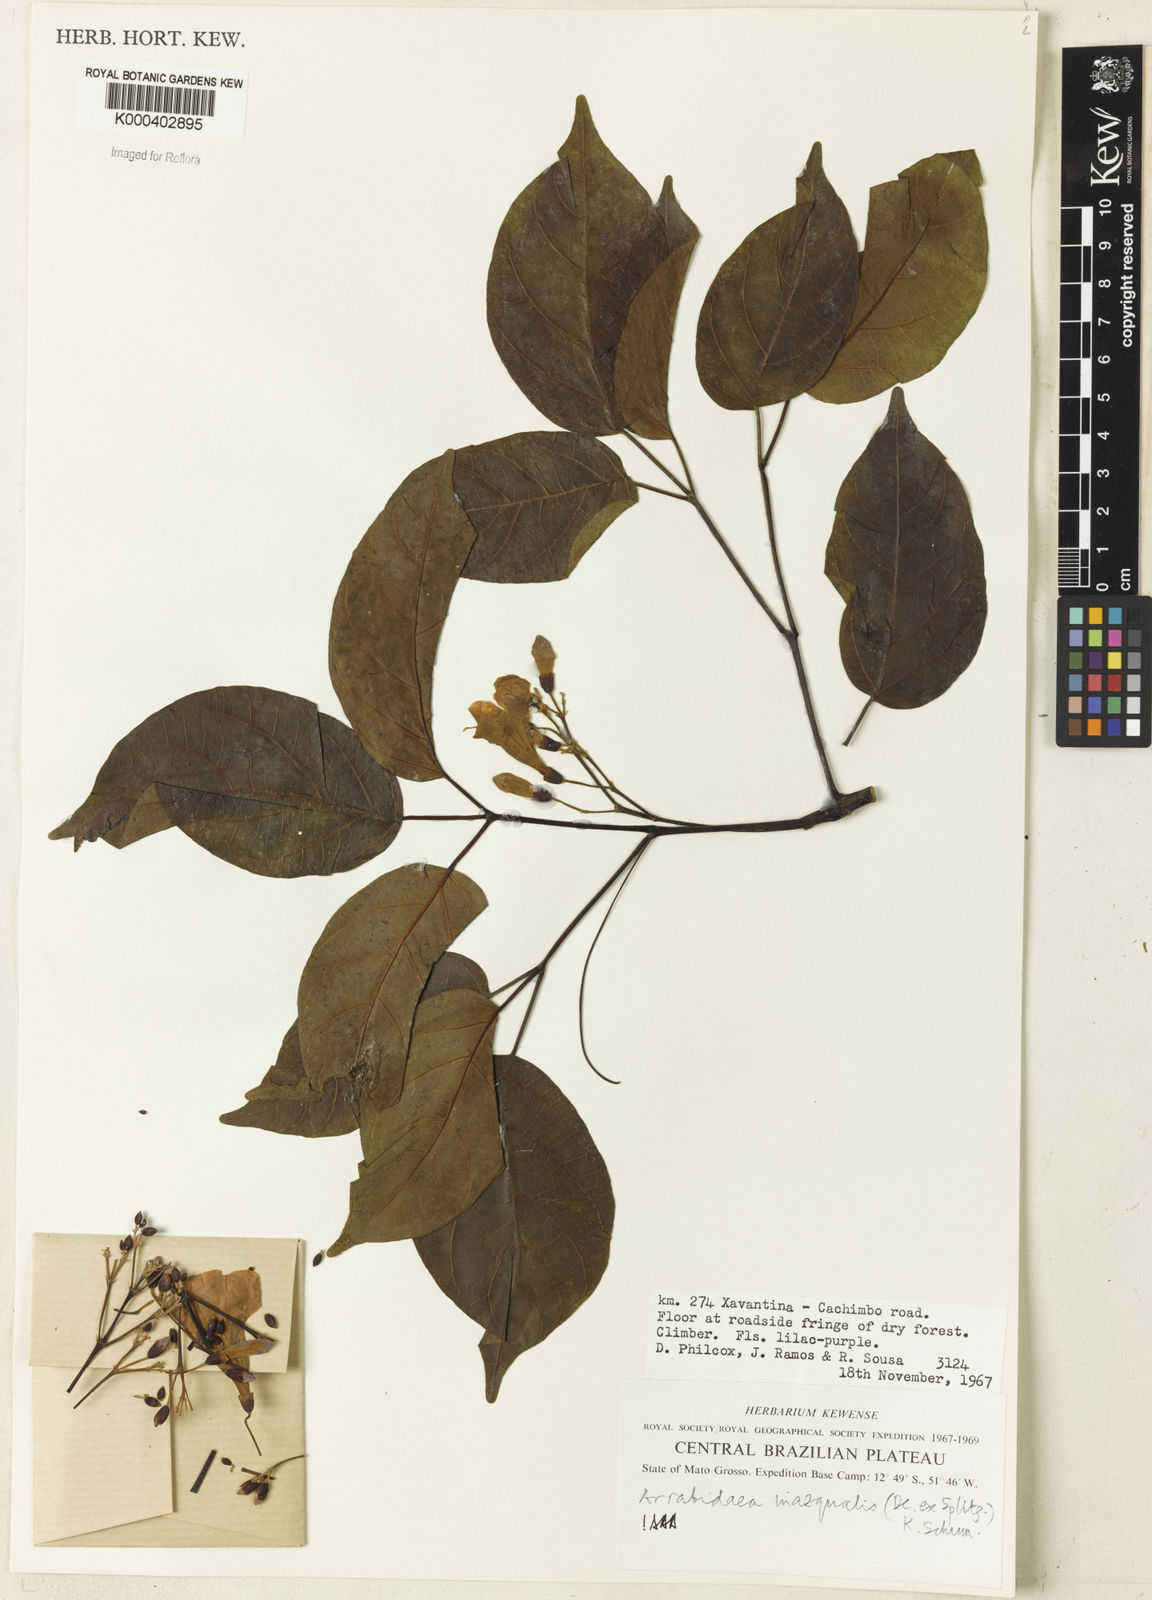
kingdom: Plantae
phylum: Tracheophyta
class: Magnoliopsida
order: Lamiales
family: Bignoniaceae
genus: Cuspidaria
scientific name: Cuspidaria inaequalis
